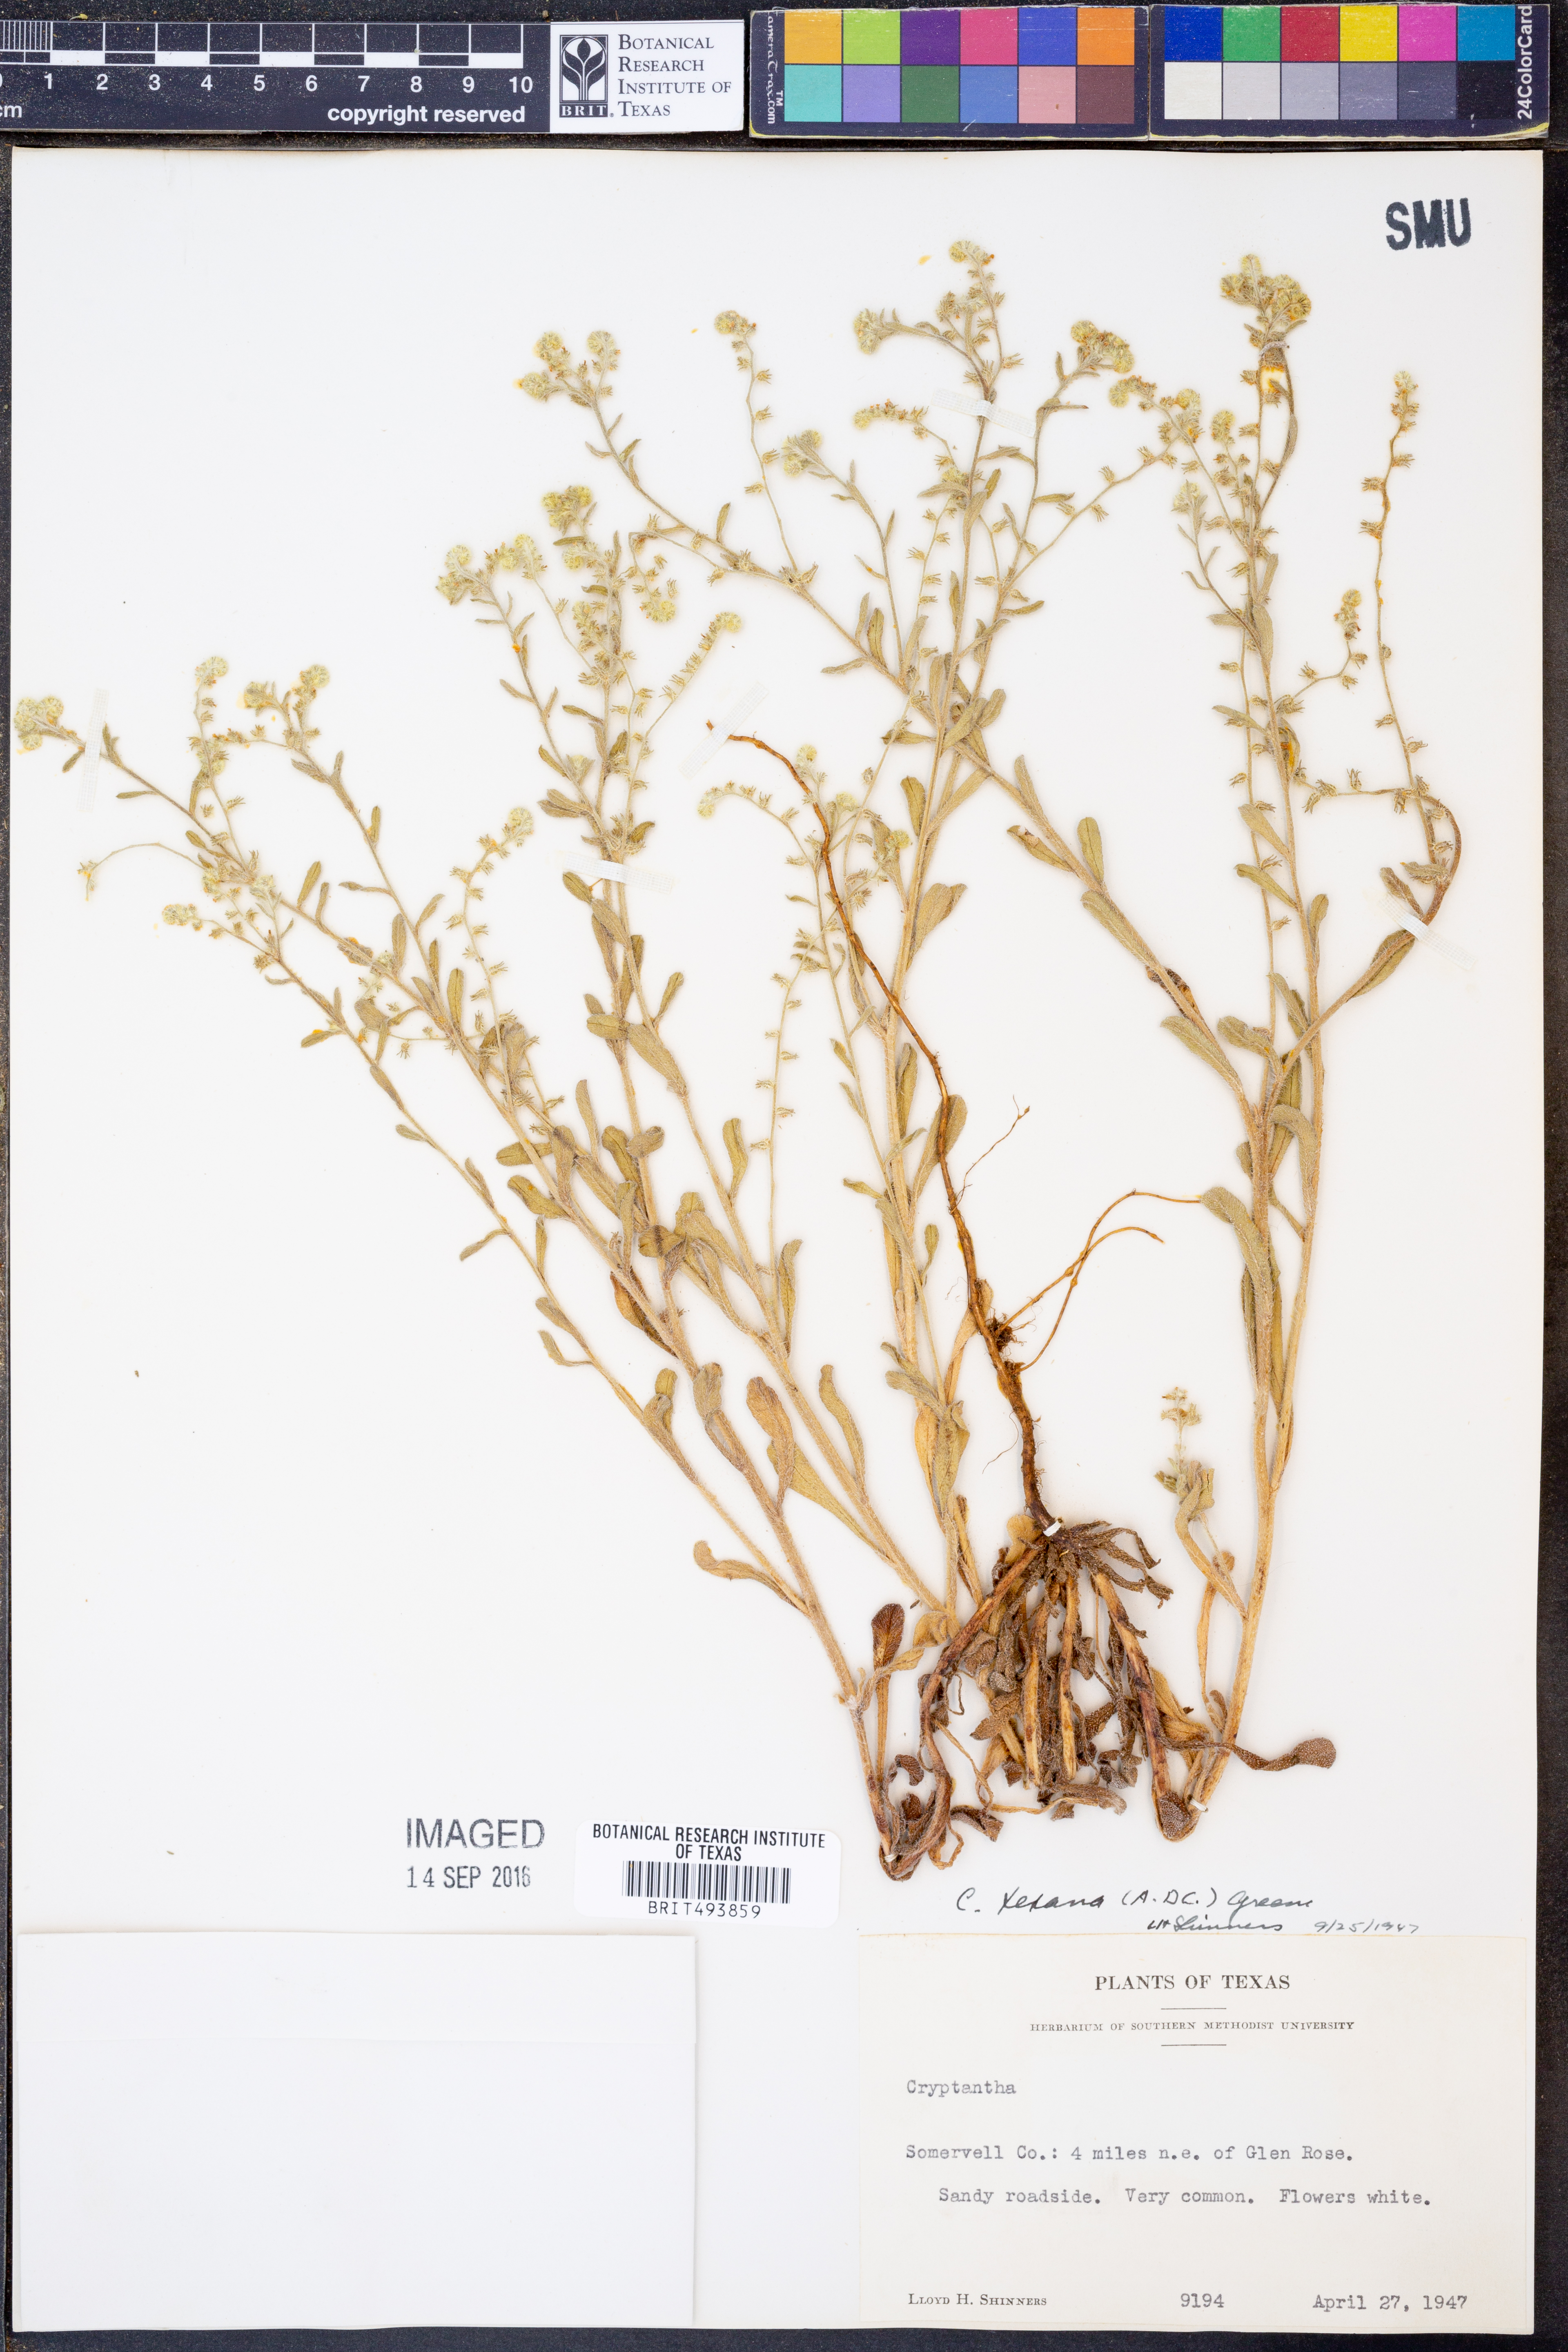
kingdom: Plantae
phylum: Tracheophyta
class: Magnoliopsida
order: Boraginales
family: Boraginaceae
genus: Cryptantha
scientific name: Cryptantha texana
